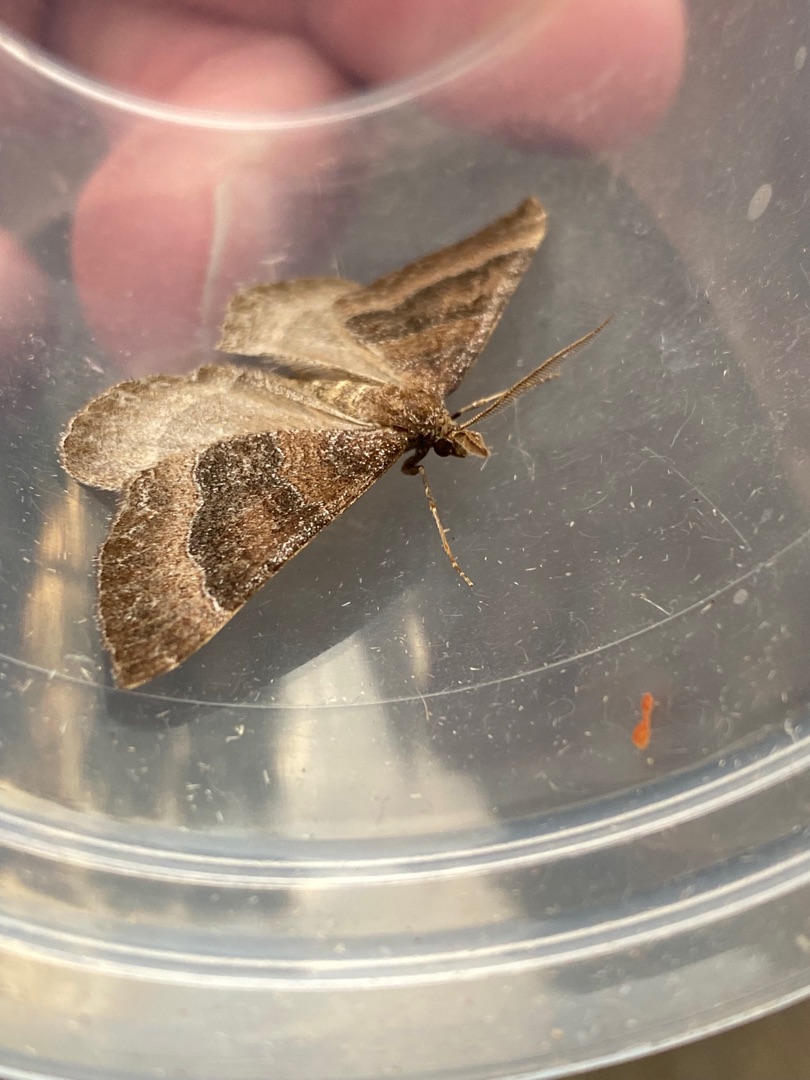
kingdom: Animalia
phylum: Arthropoda
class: Insecta
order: Lepidoptera
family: Geometridae
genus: Larentia
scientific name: Larentia clavaria
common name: Katostmåler
